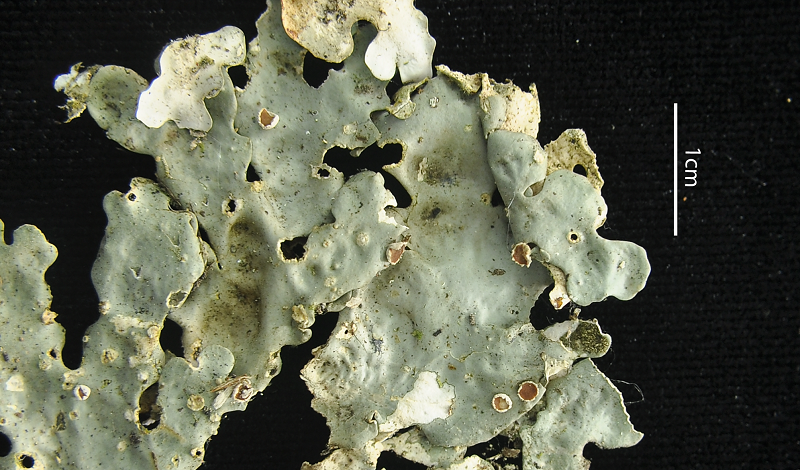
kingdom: Fungi
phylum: Ascomycota
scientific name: Ascomycota
